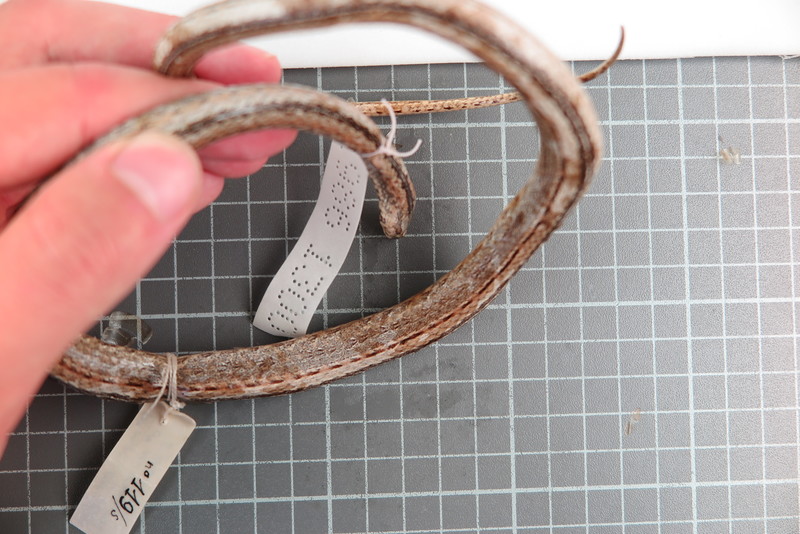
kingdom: Animalia
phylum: Chordata
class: Squamata
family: Psammophiidae
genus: Mimophis
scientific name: Mimophis
